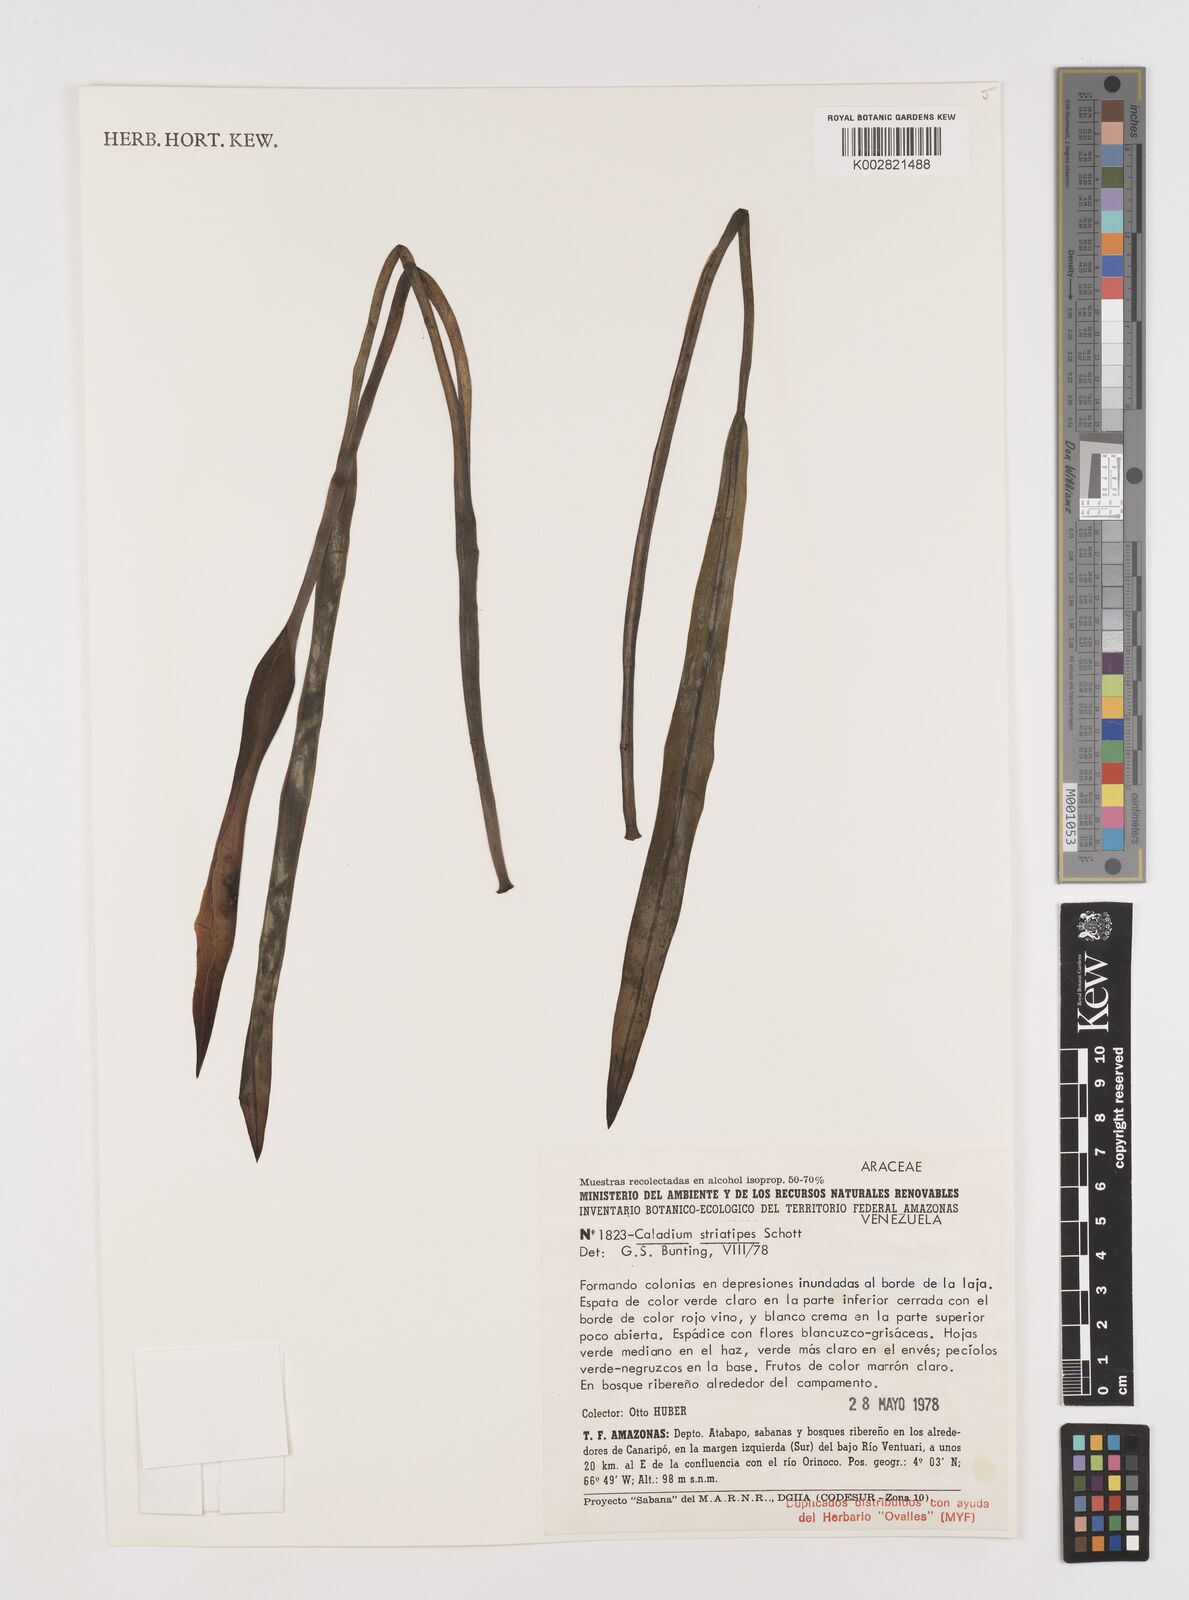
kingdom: Plantae
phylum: Tracheophyta
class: Liliopsida
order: Alismatales
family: Araceae
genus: Xanthosoma
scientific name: Xanthosoma striatipes
